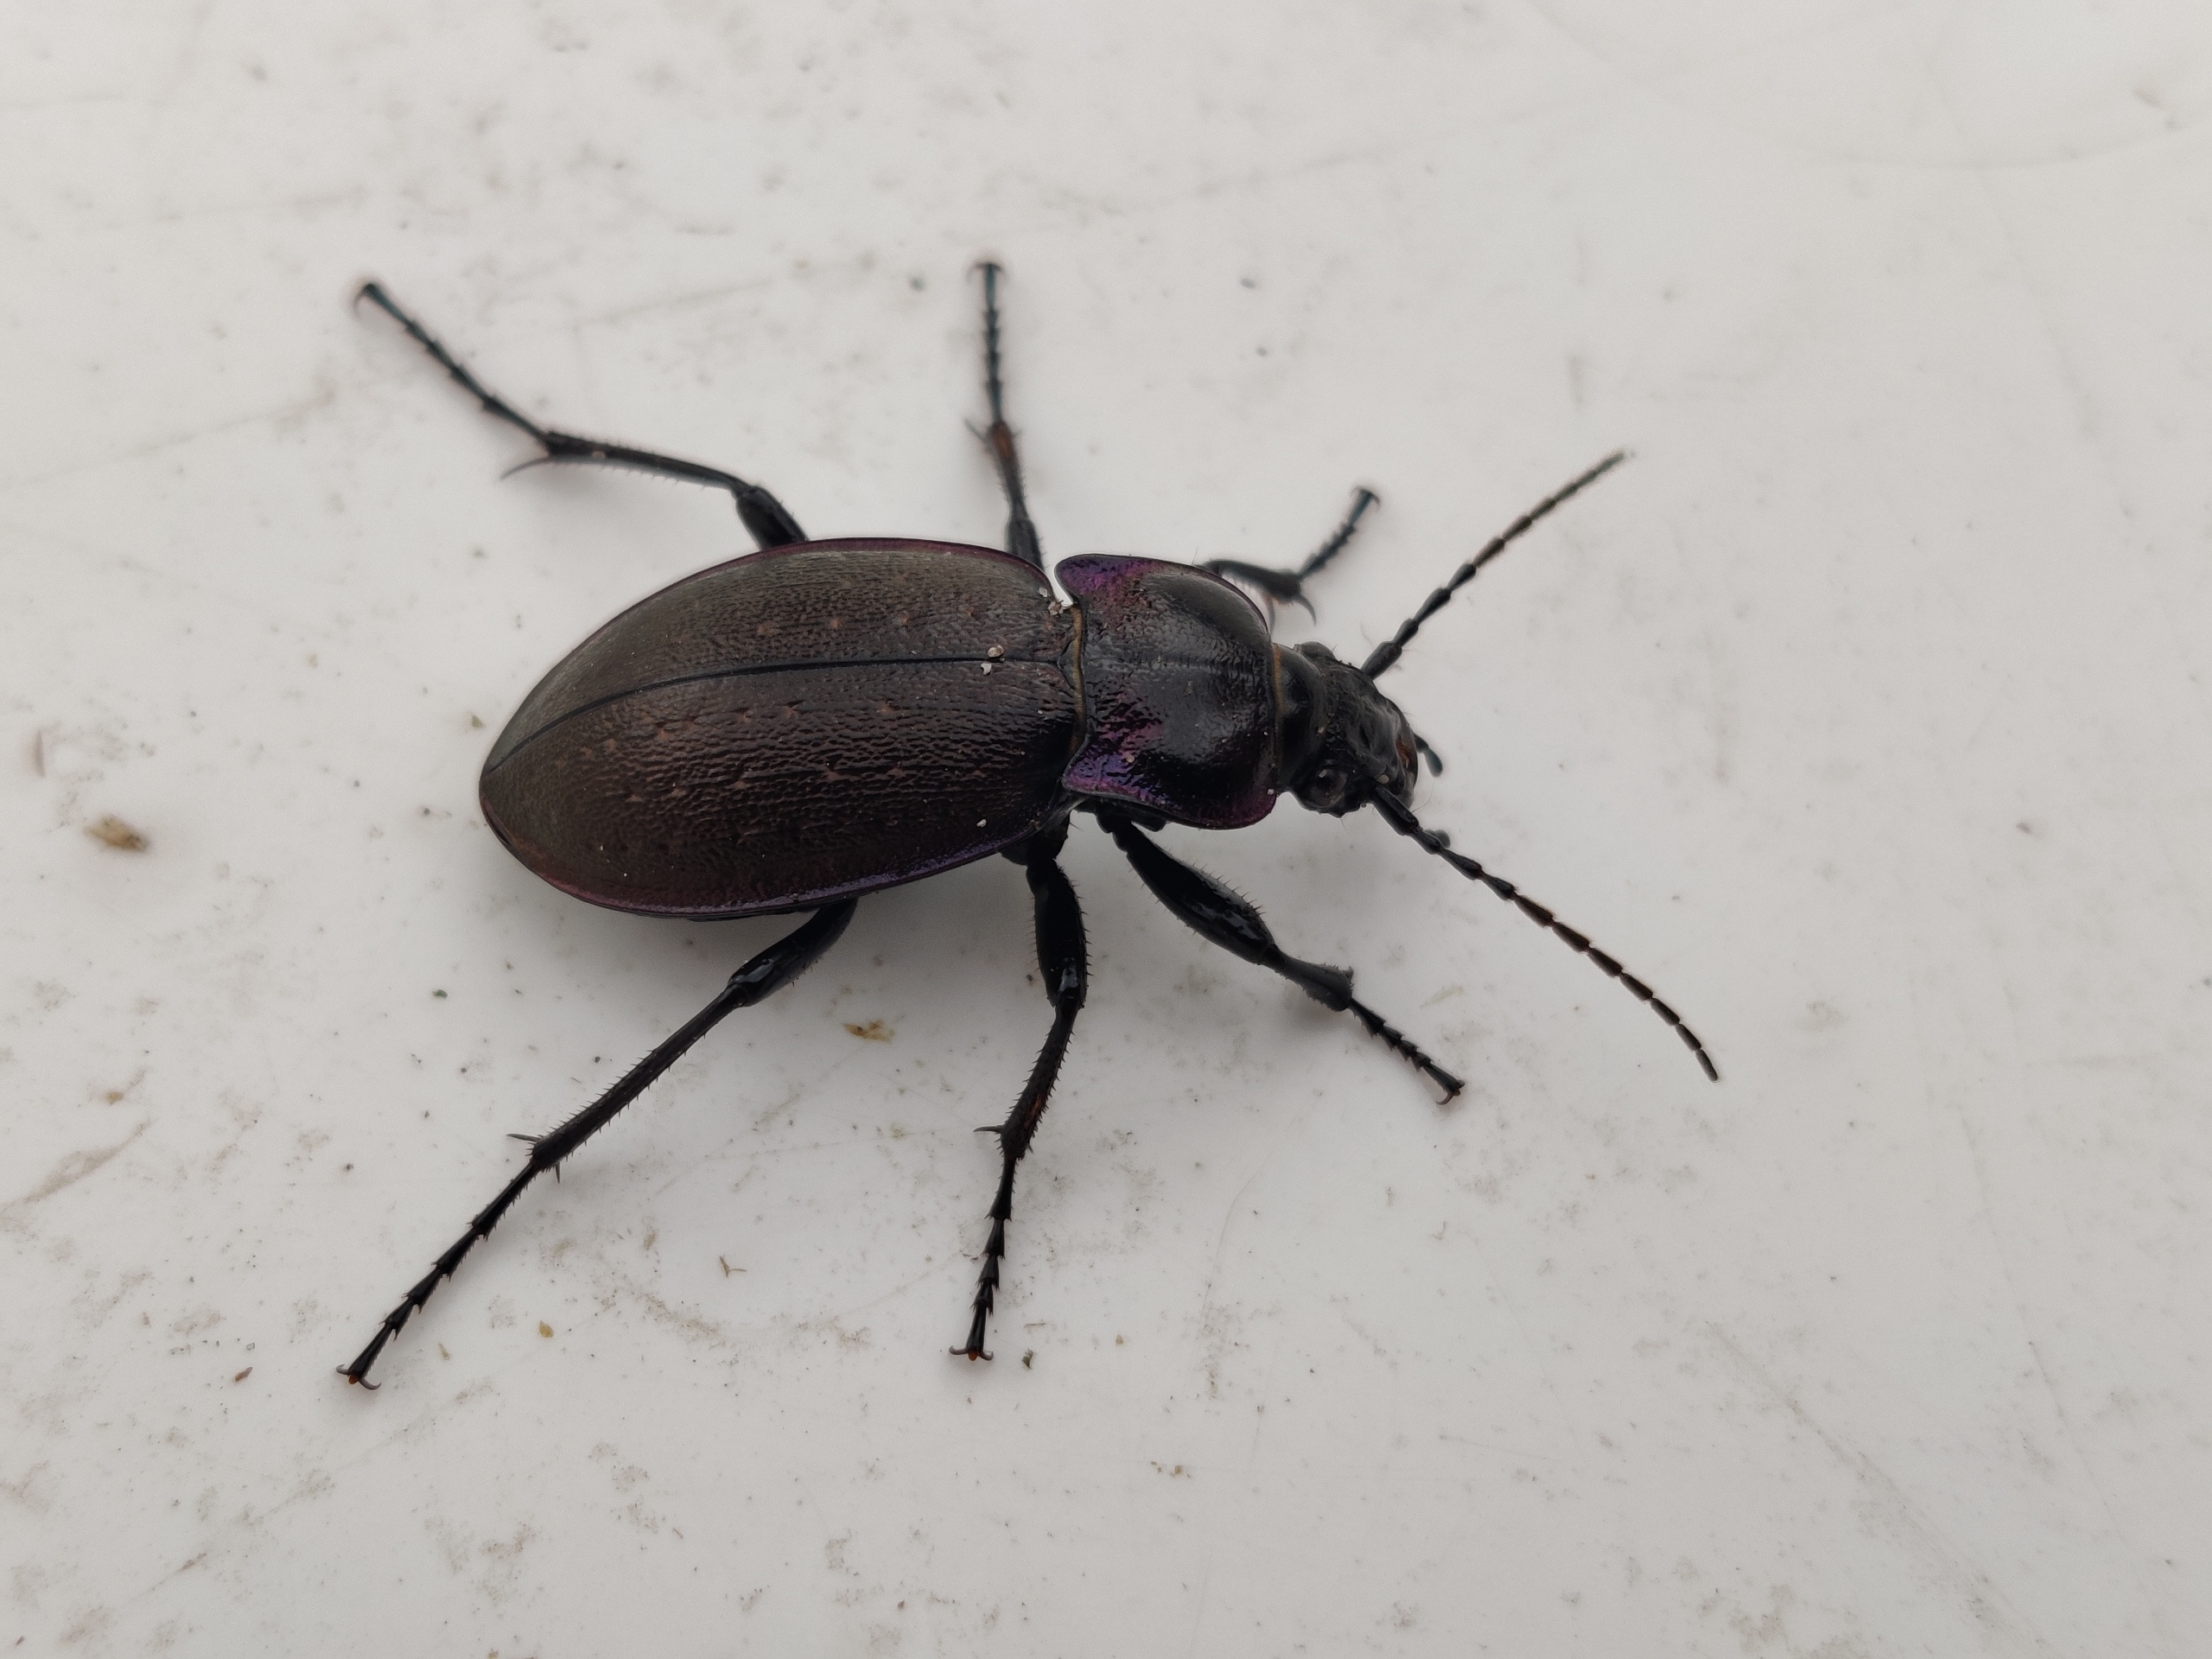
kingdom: Animalia
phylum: Arthropoda
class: Insecta
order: Coleoptera
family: Carabidae
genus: Carabus
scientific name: Carabus nemoralis
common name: Kratløber
